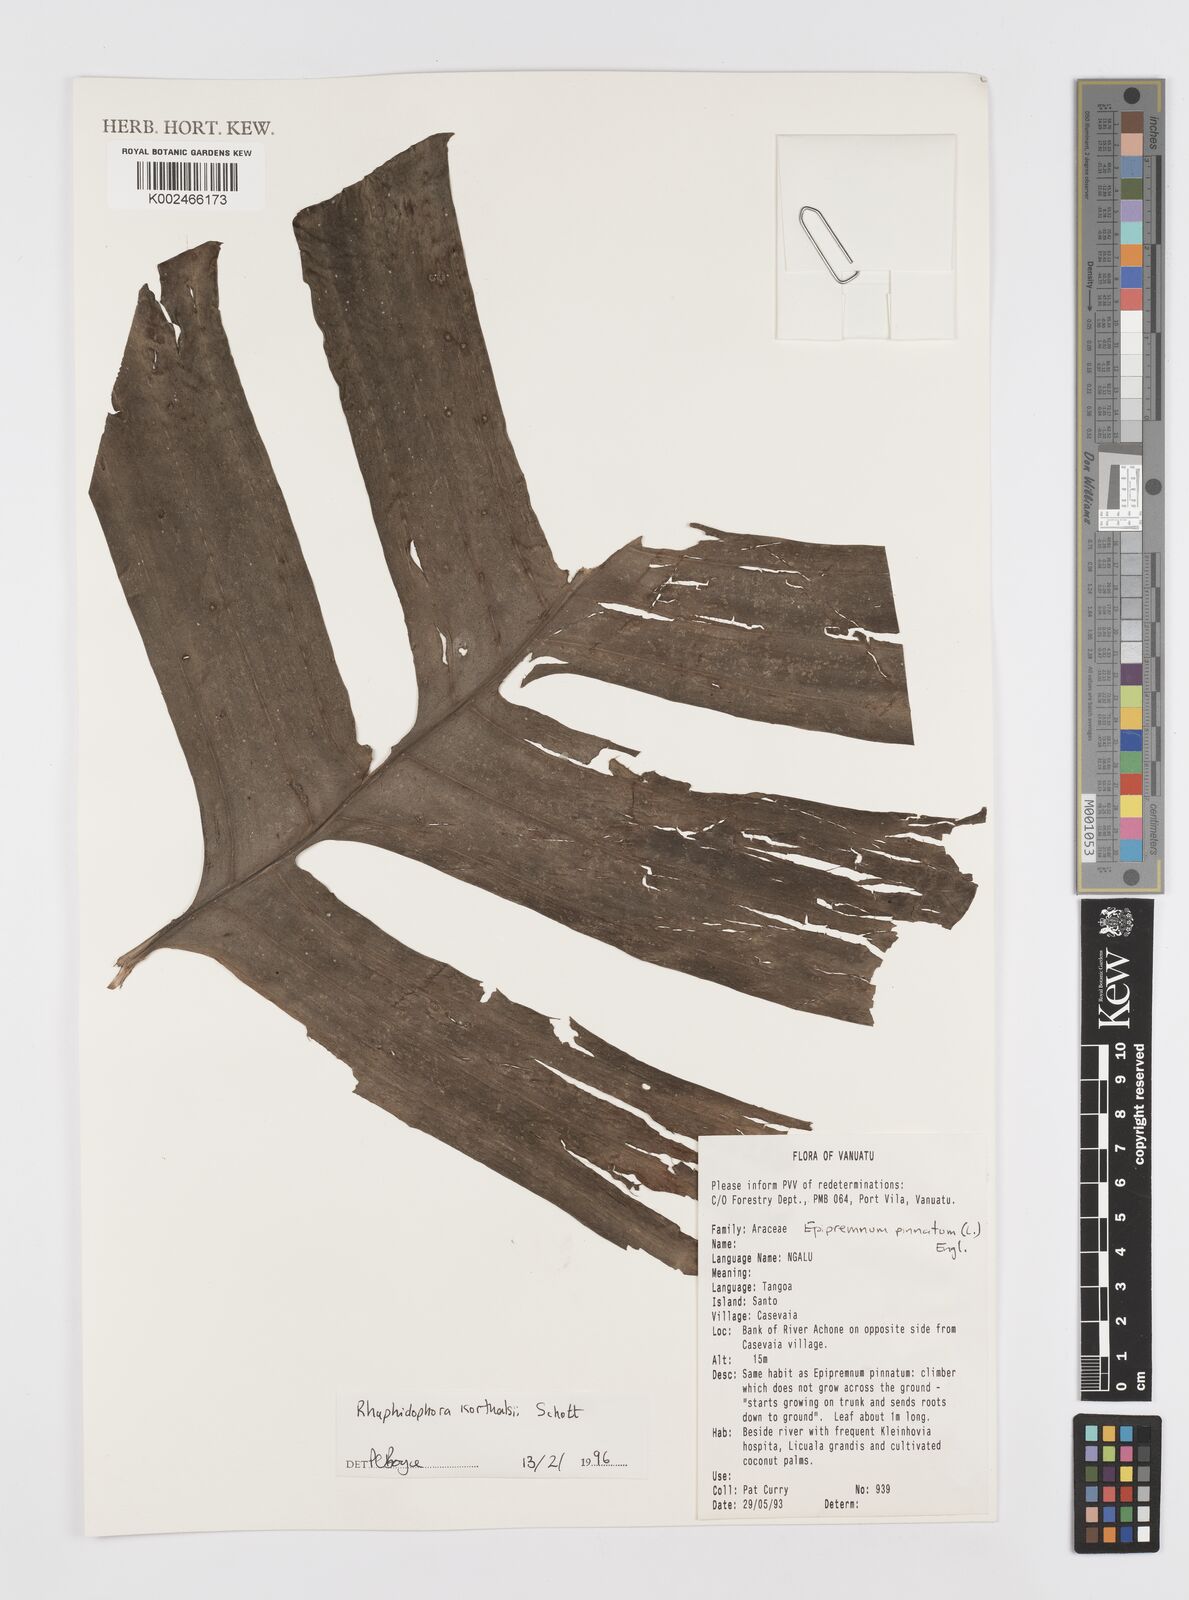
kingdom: Plantae
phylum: Tracheophyta
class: Liliopsida
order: Alismatales
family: Araceae
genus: Rhaphidophora
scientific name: Rhaphidophora korthalsii
